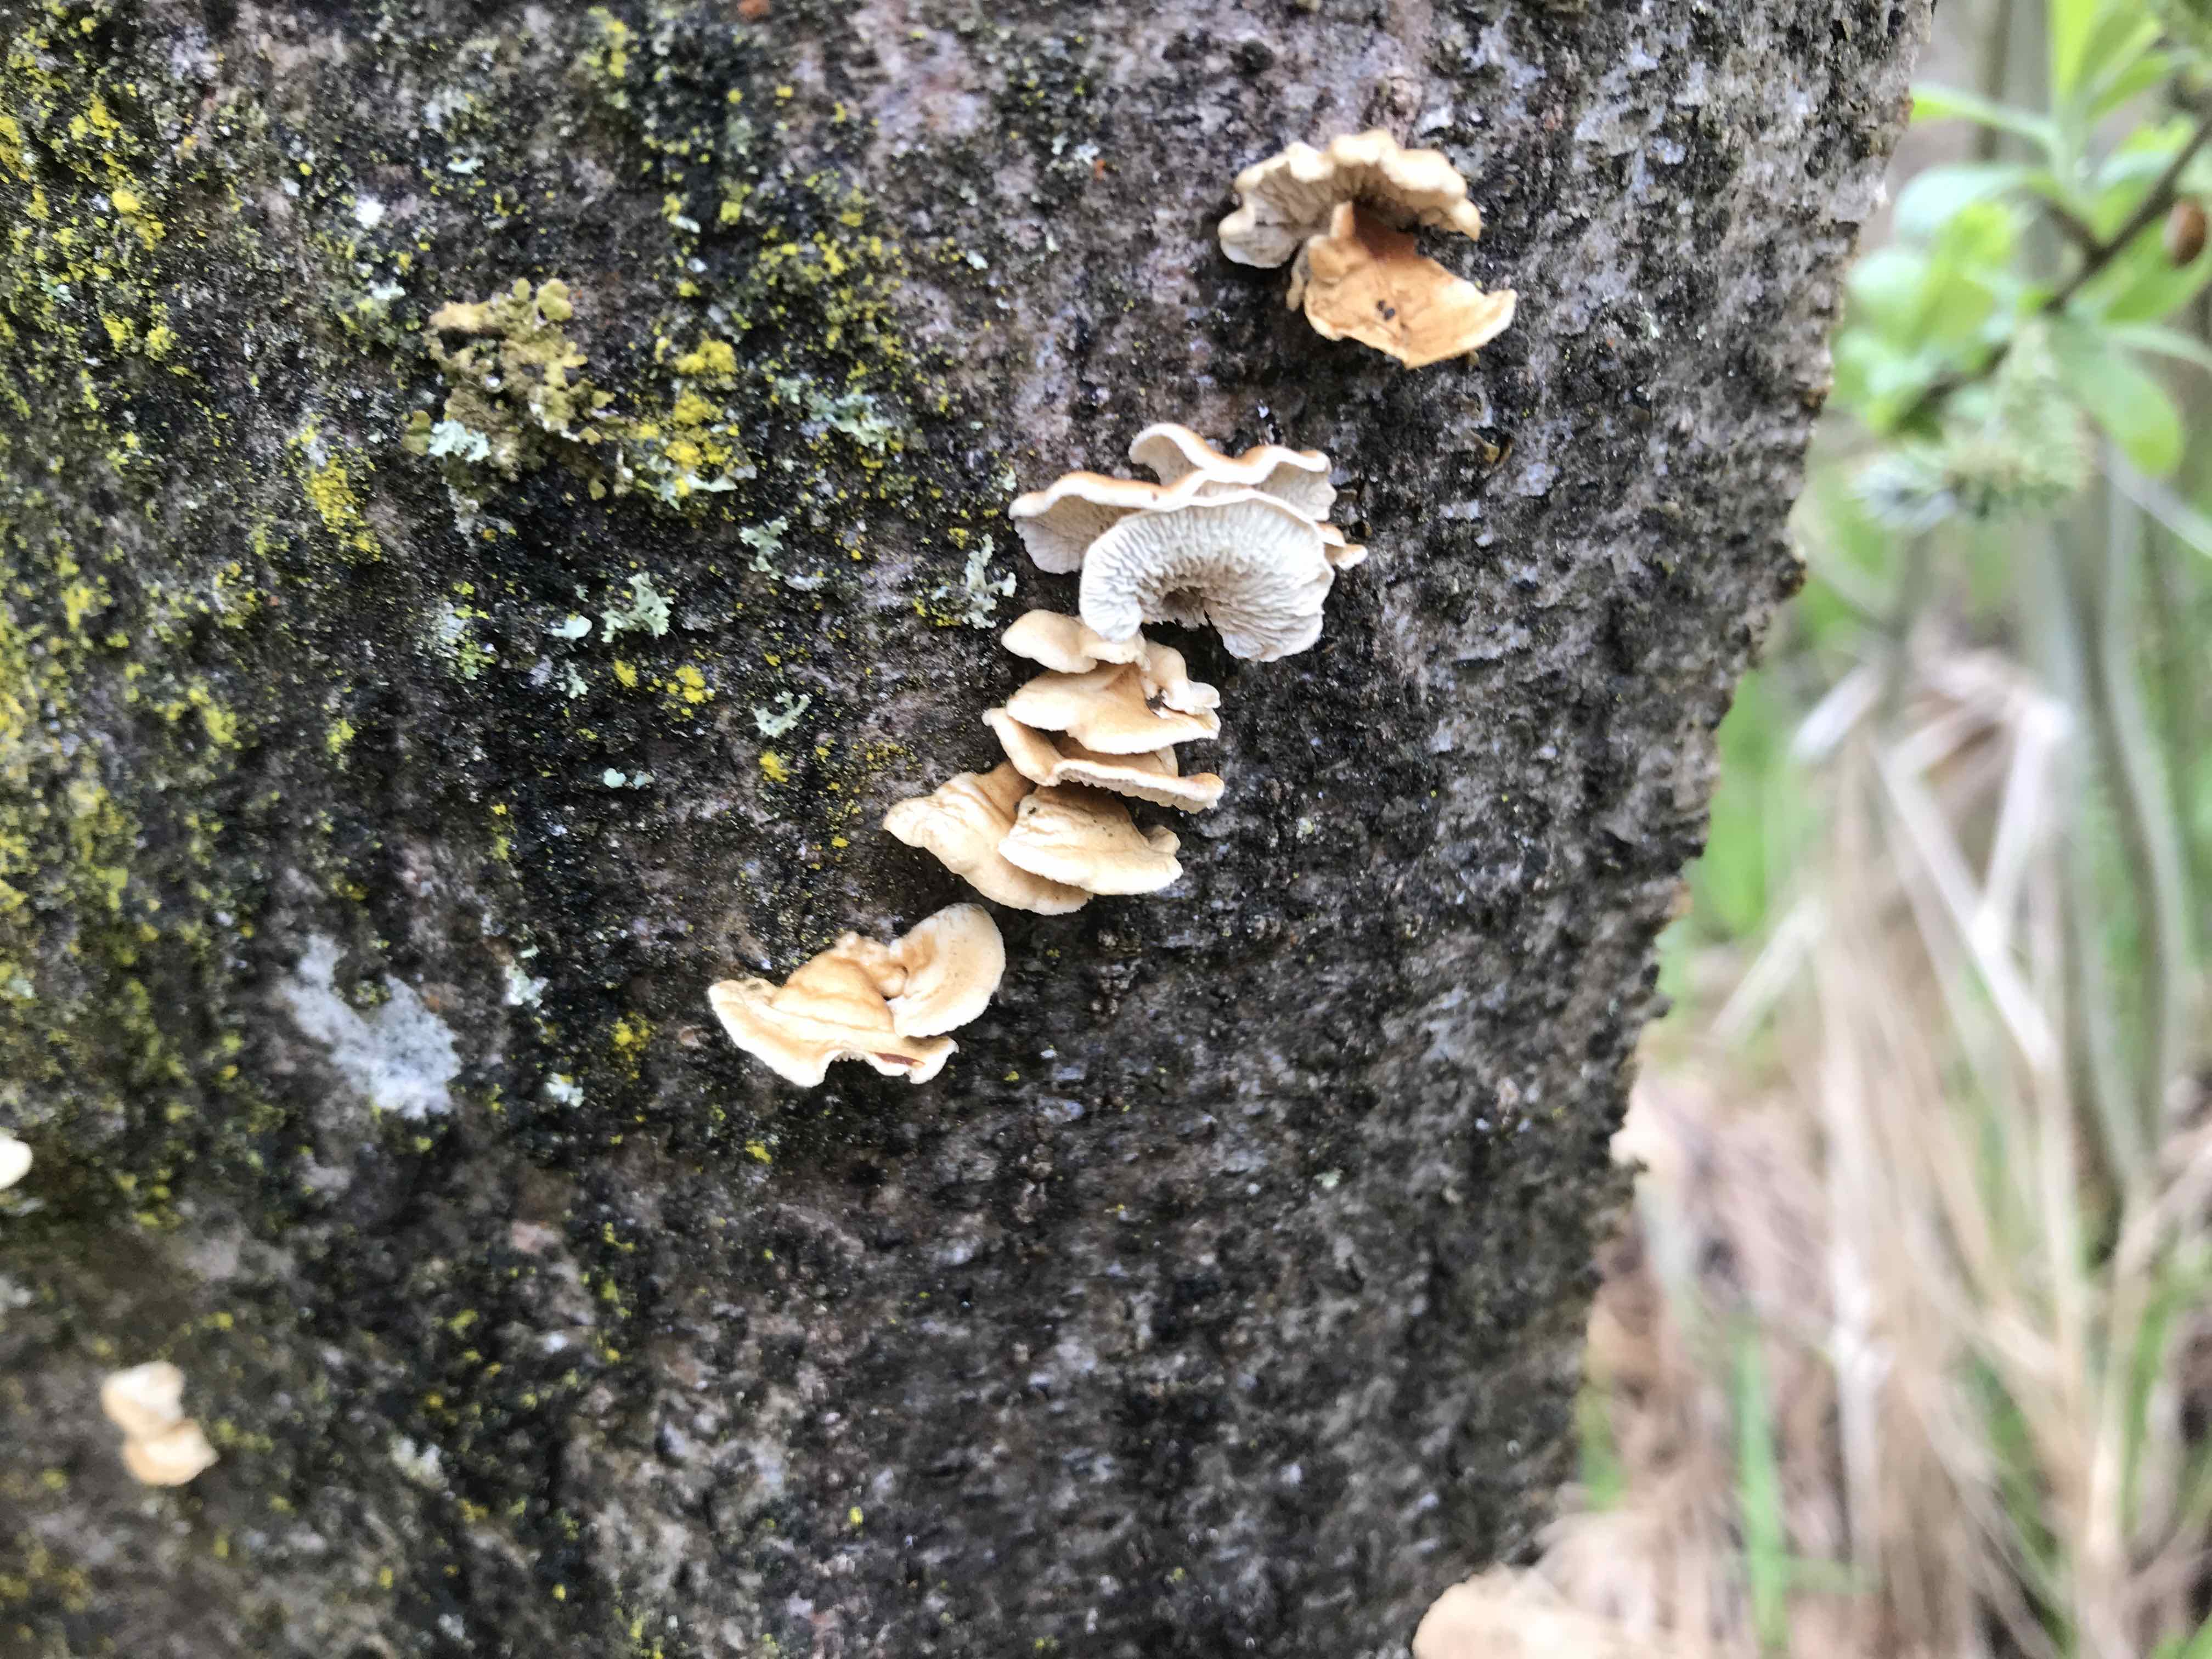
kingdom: Fungi
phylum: Basidiomycota
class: Agaricomycetes
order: Amylocorticiales
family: Amylocorticiaceae
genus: Plicaturopsis
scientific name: Plicaturopsis crispa
